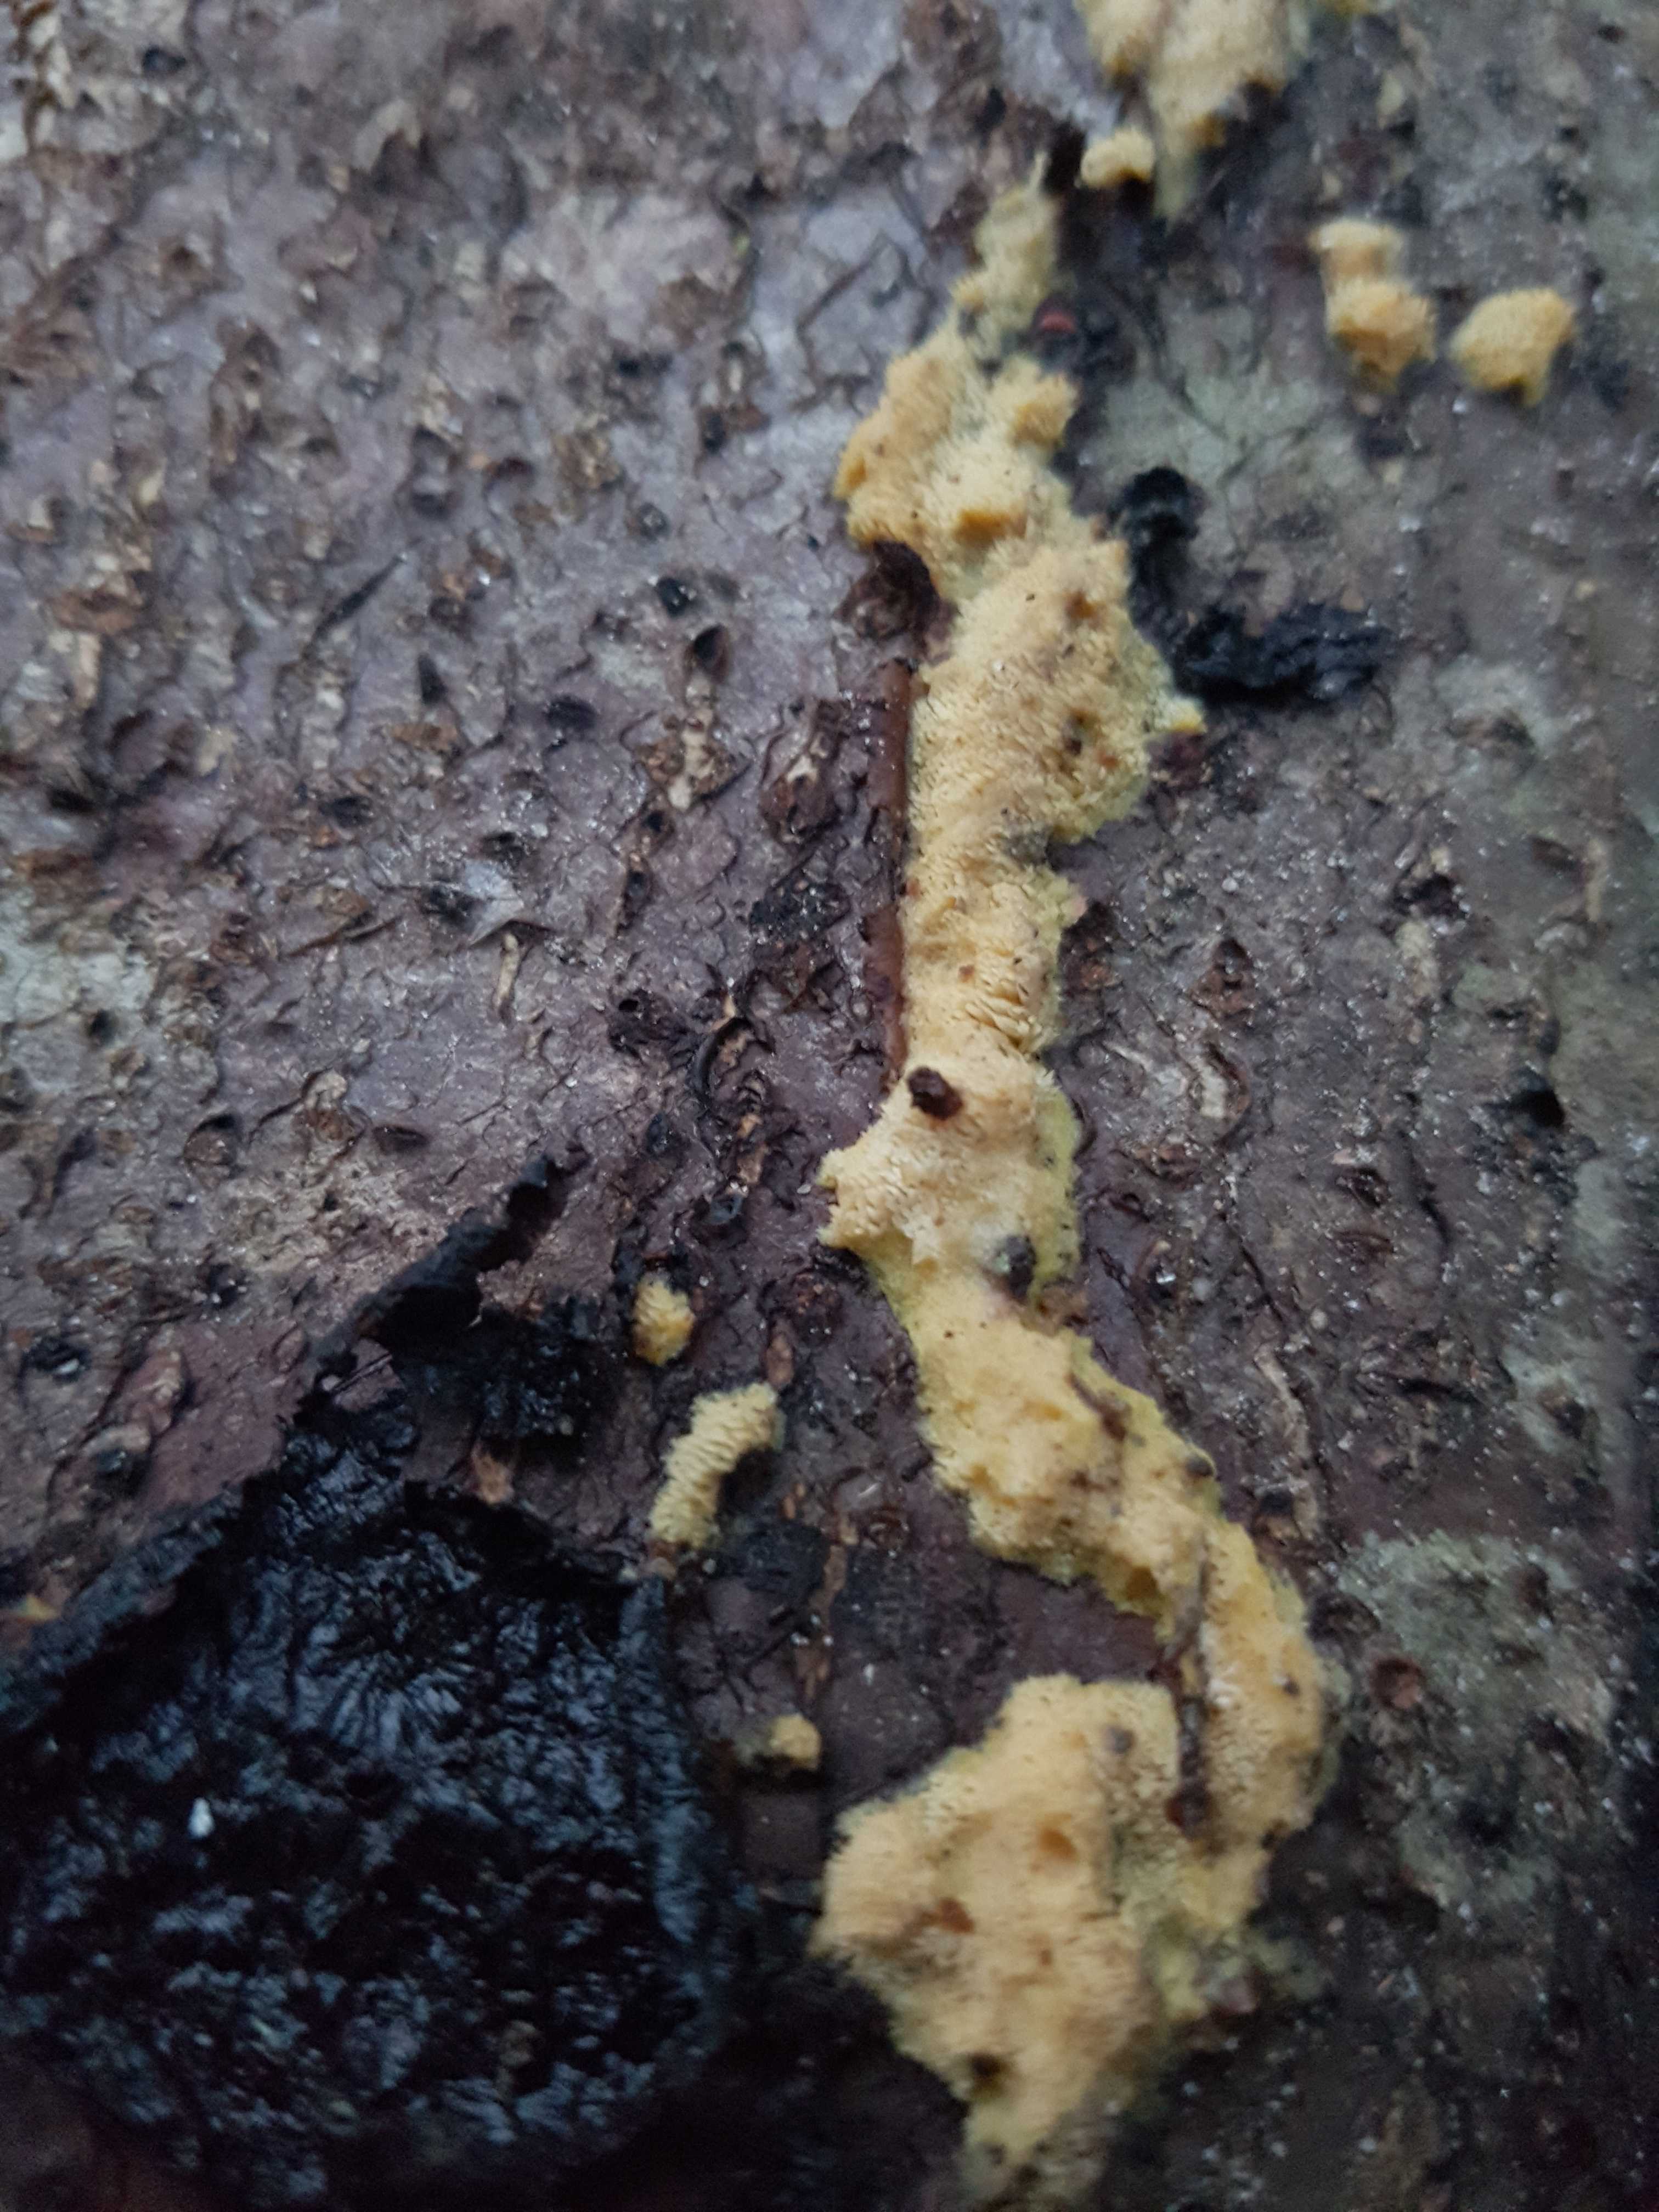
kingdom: Fungi
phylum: Basidiomycota
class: Agaricomycetes
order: Polyporales
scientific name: Polyporales
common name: poresvampordenen
